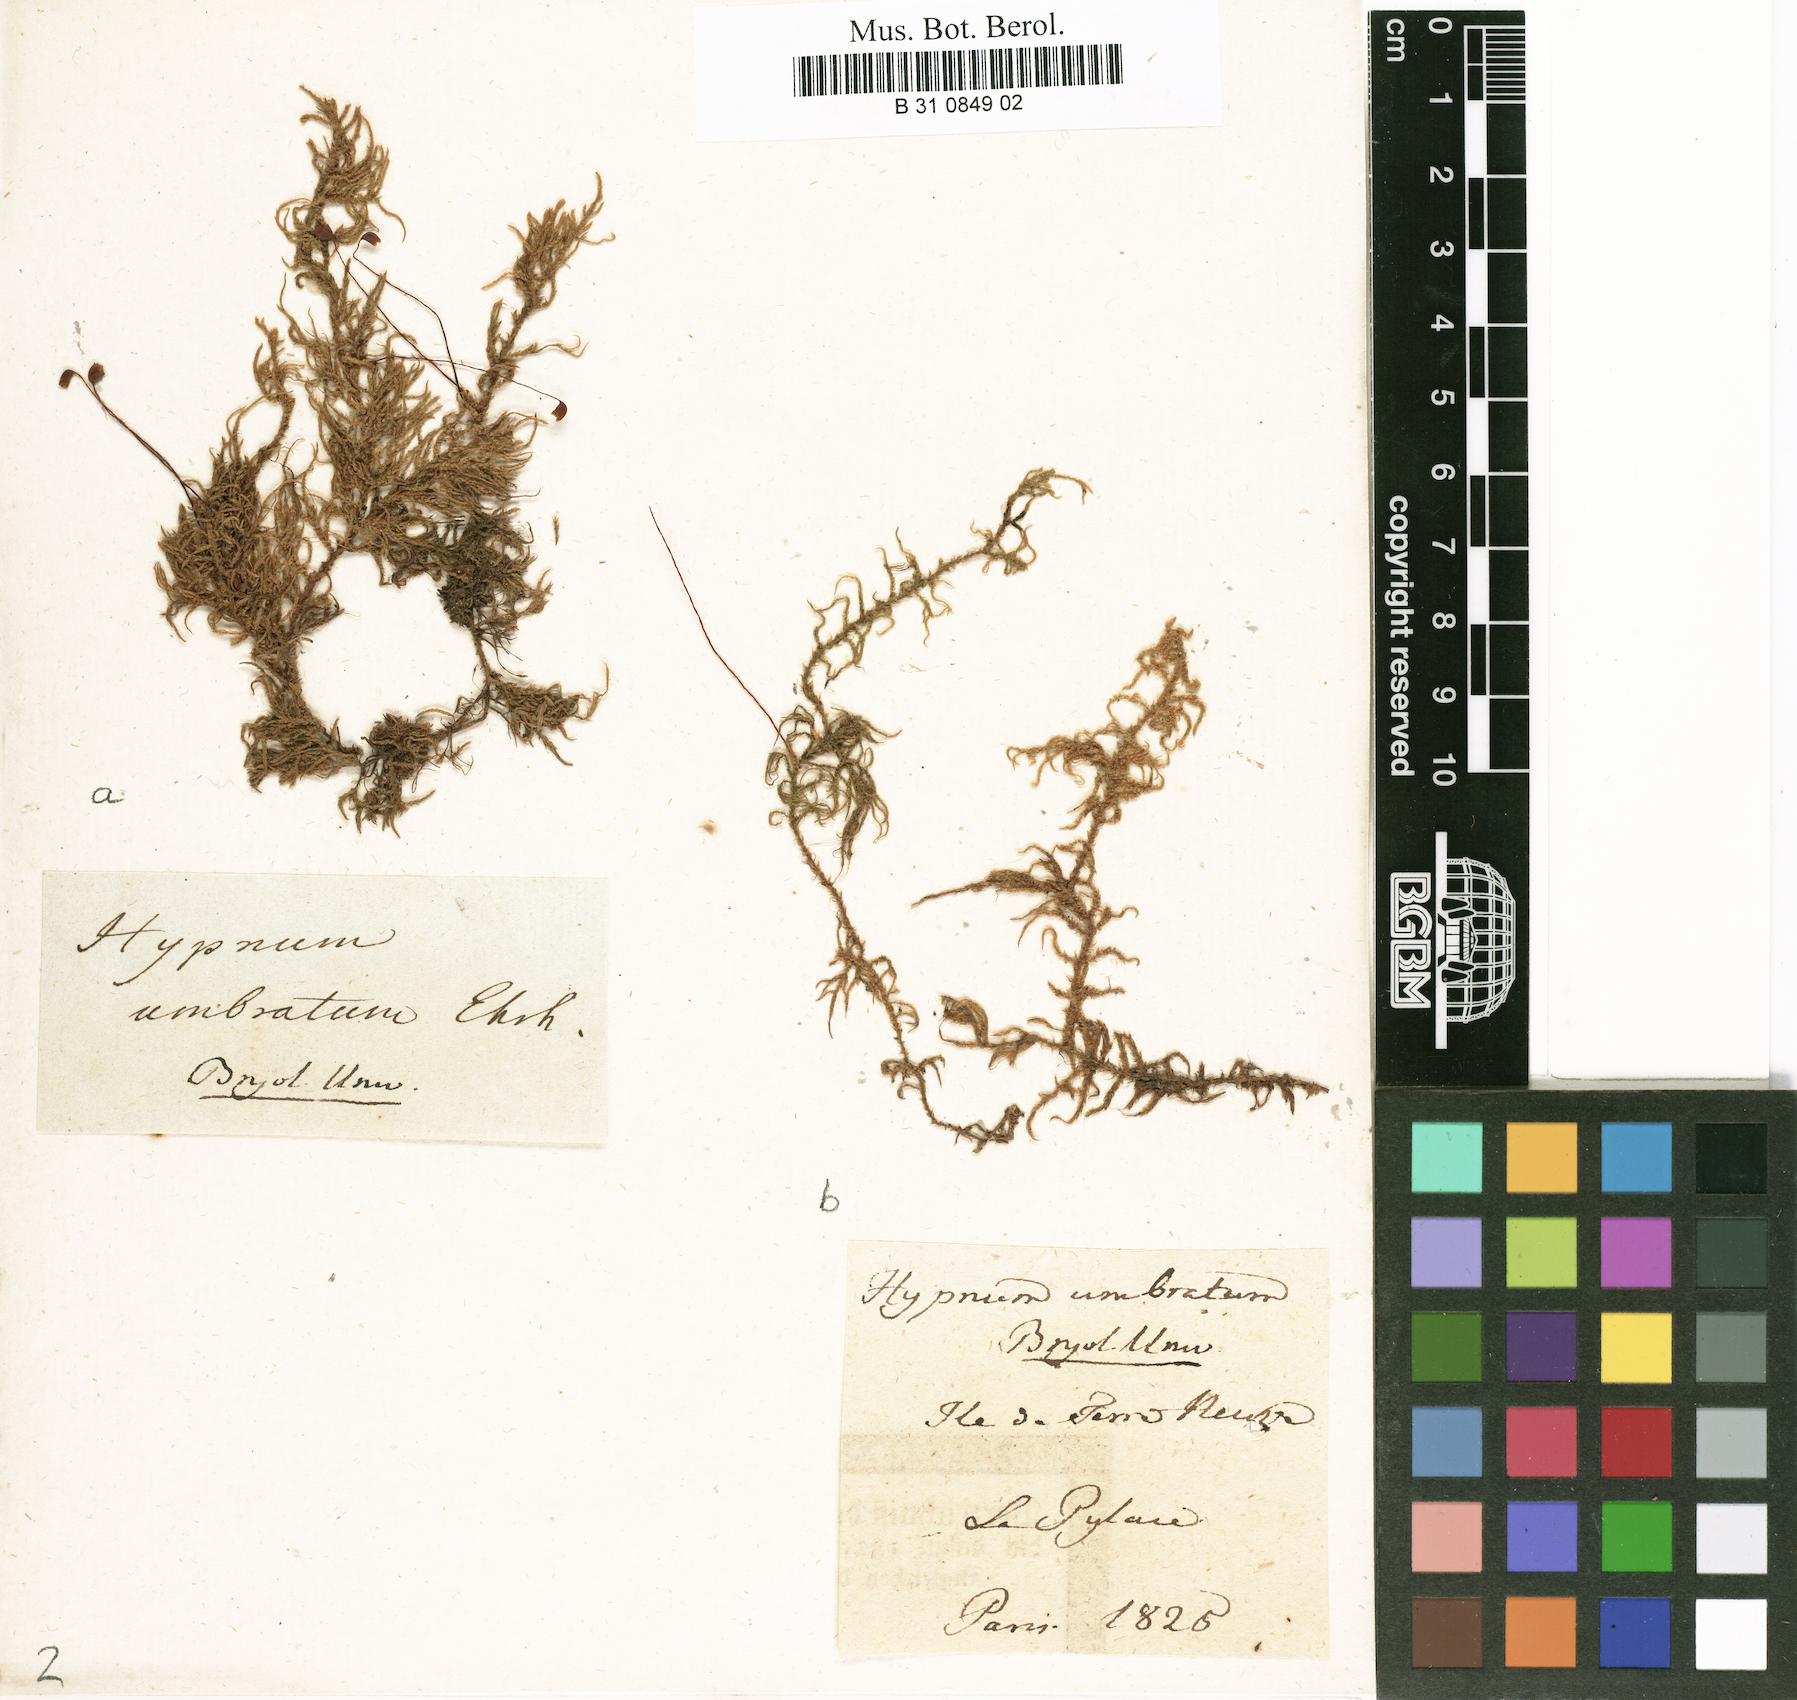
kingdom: Plantae
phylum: Bryophyta
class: Bryopsida
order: Hypnales
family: Hylocomiaceae
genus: Hylocomiastrum
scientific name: Hylocomiastrum umbratum
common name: Shaded woods moss
